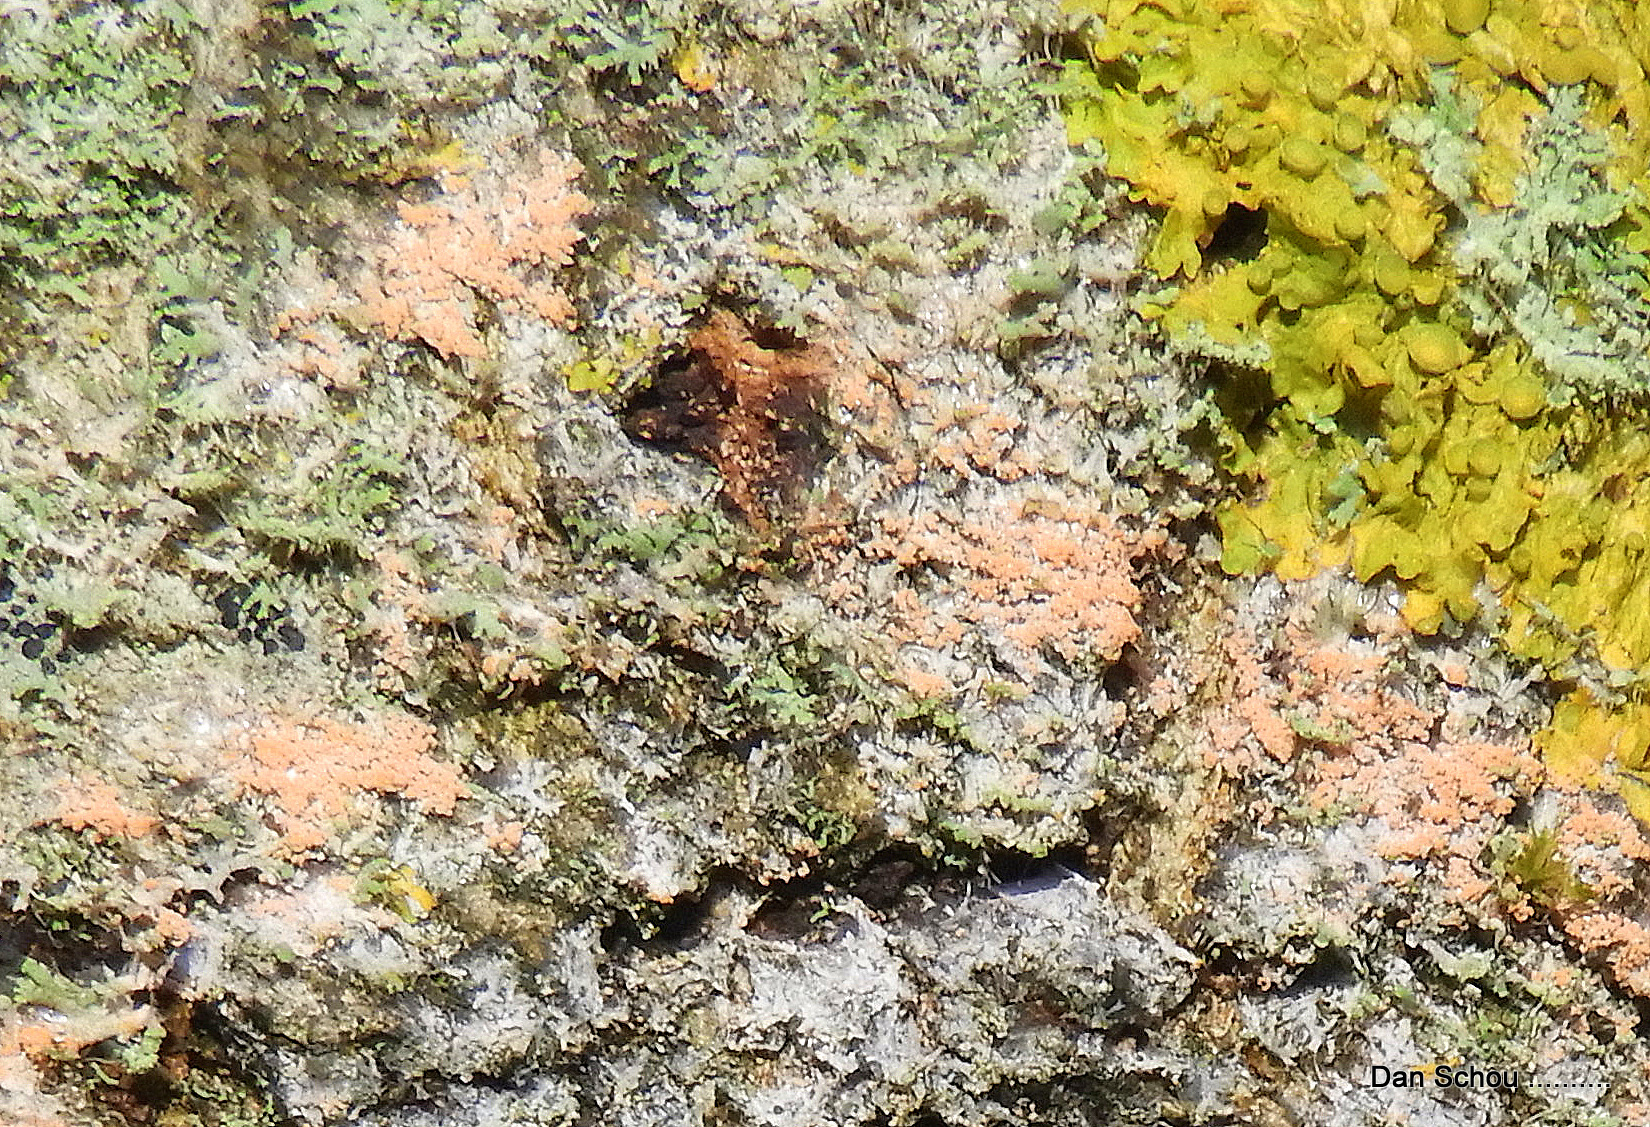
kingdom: Fungi
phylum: Basidiomycota
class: Agaricomycetes
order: Corticiales
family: Corticiaceae
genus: Erythricium
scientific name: Erythricium aurantiacum
